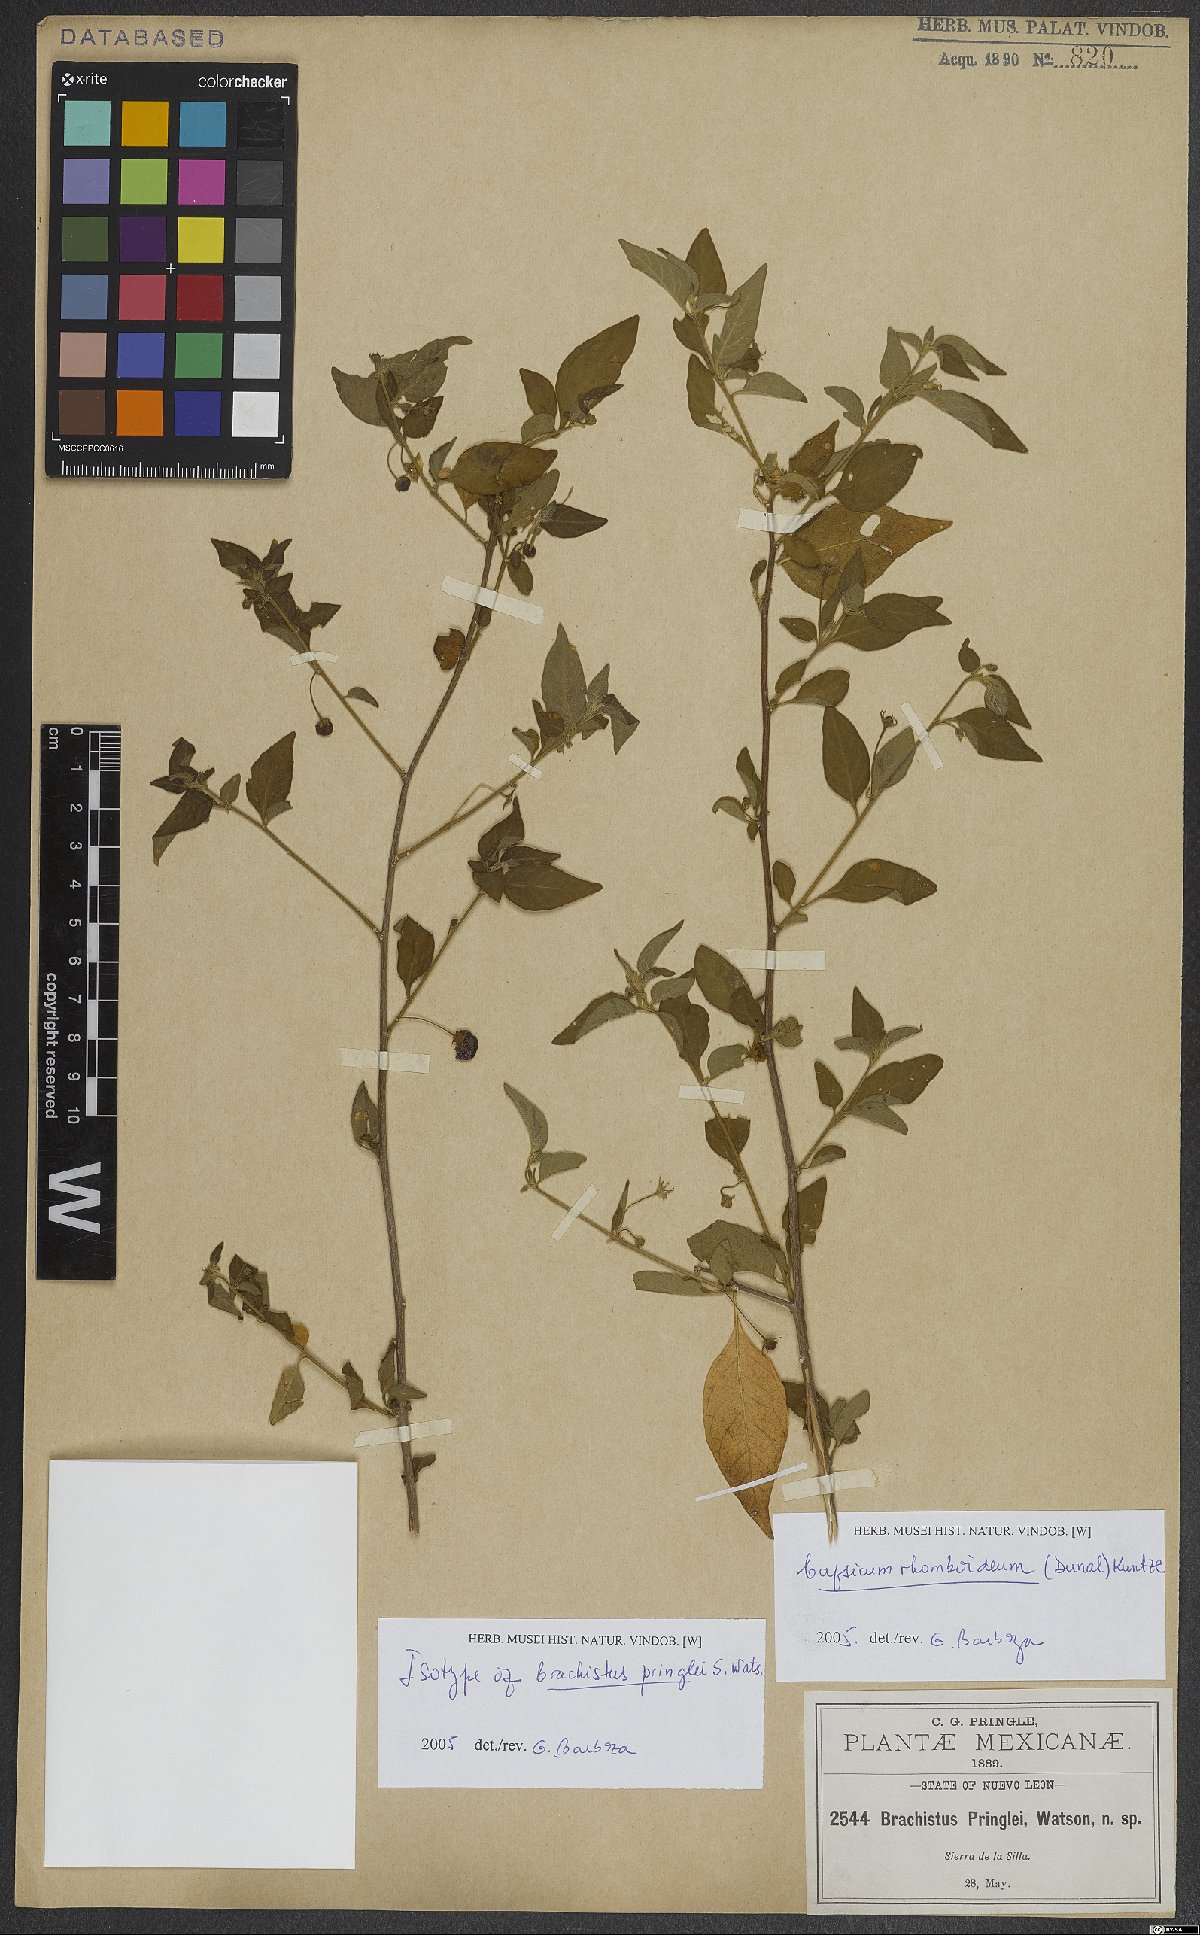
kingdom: Plantae
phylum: Tracheophyta
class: Magnoliopsida
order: Solanales
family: Solanaceae
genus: Capsicum
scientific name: Capsicum rhomboideum
